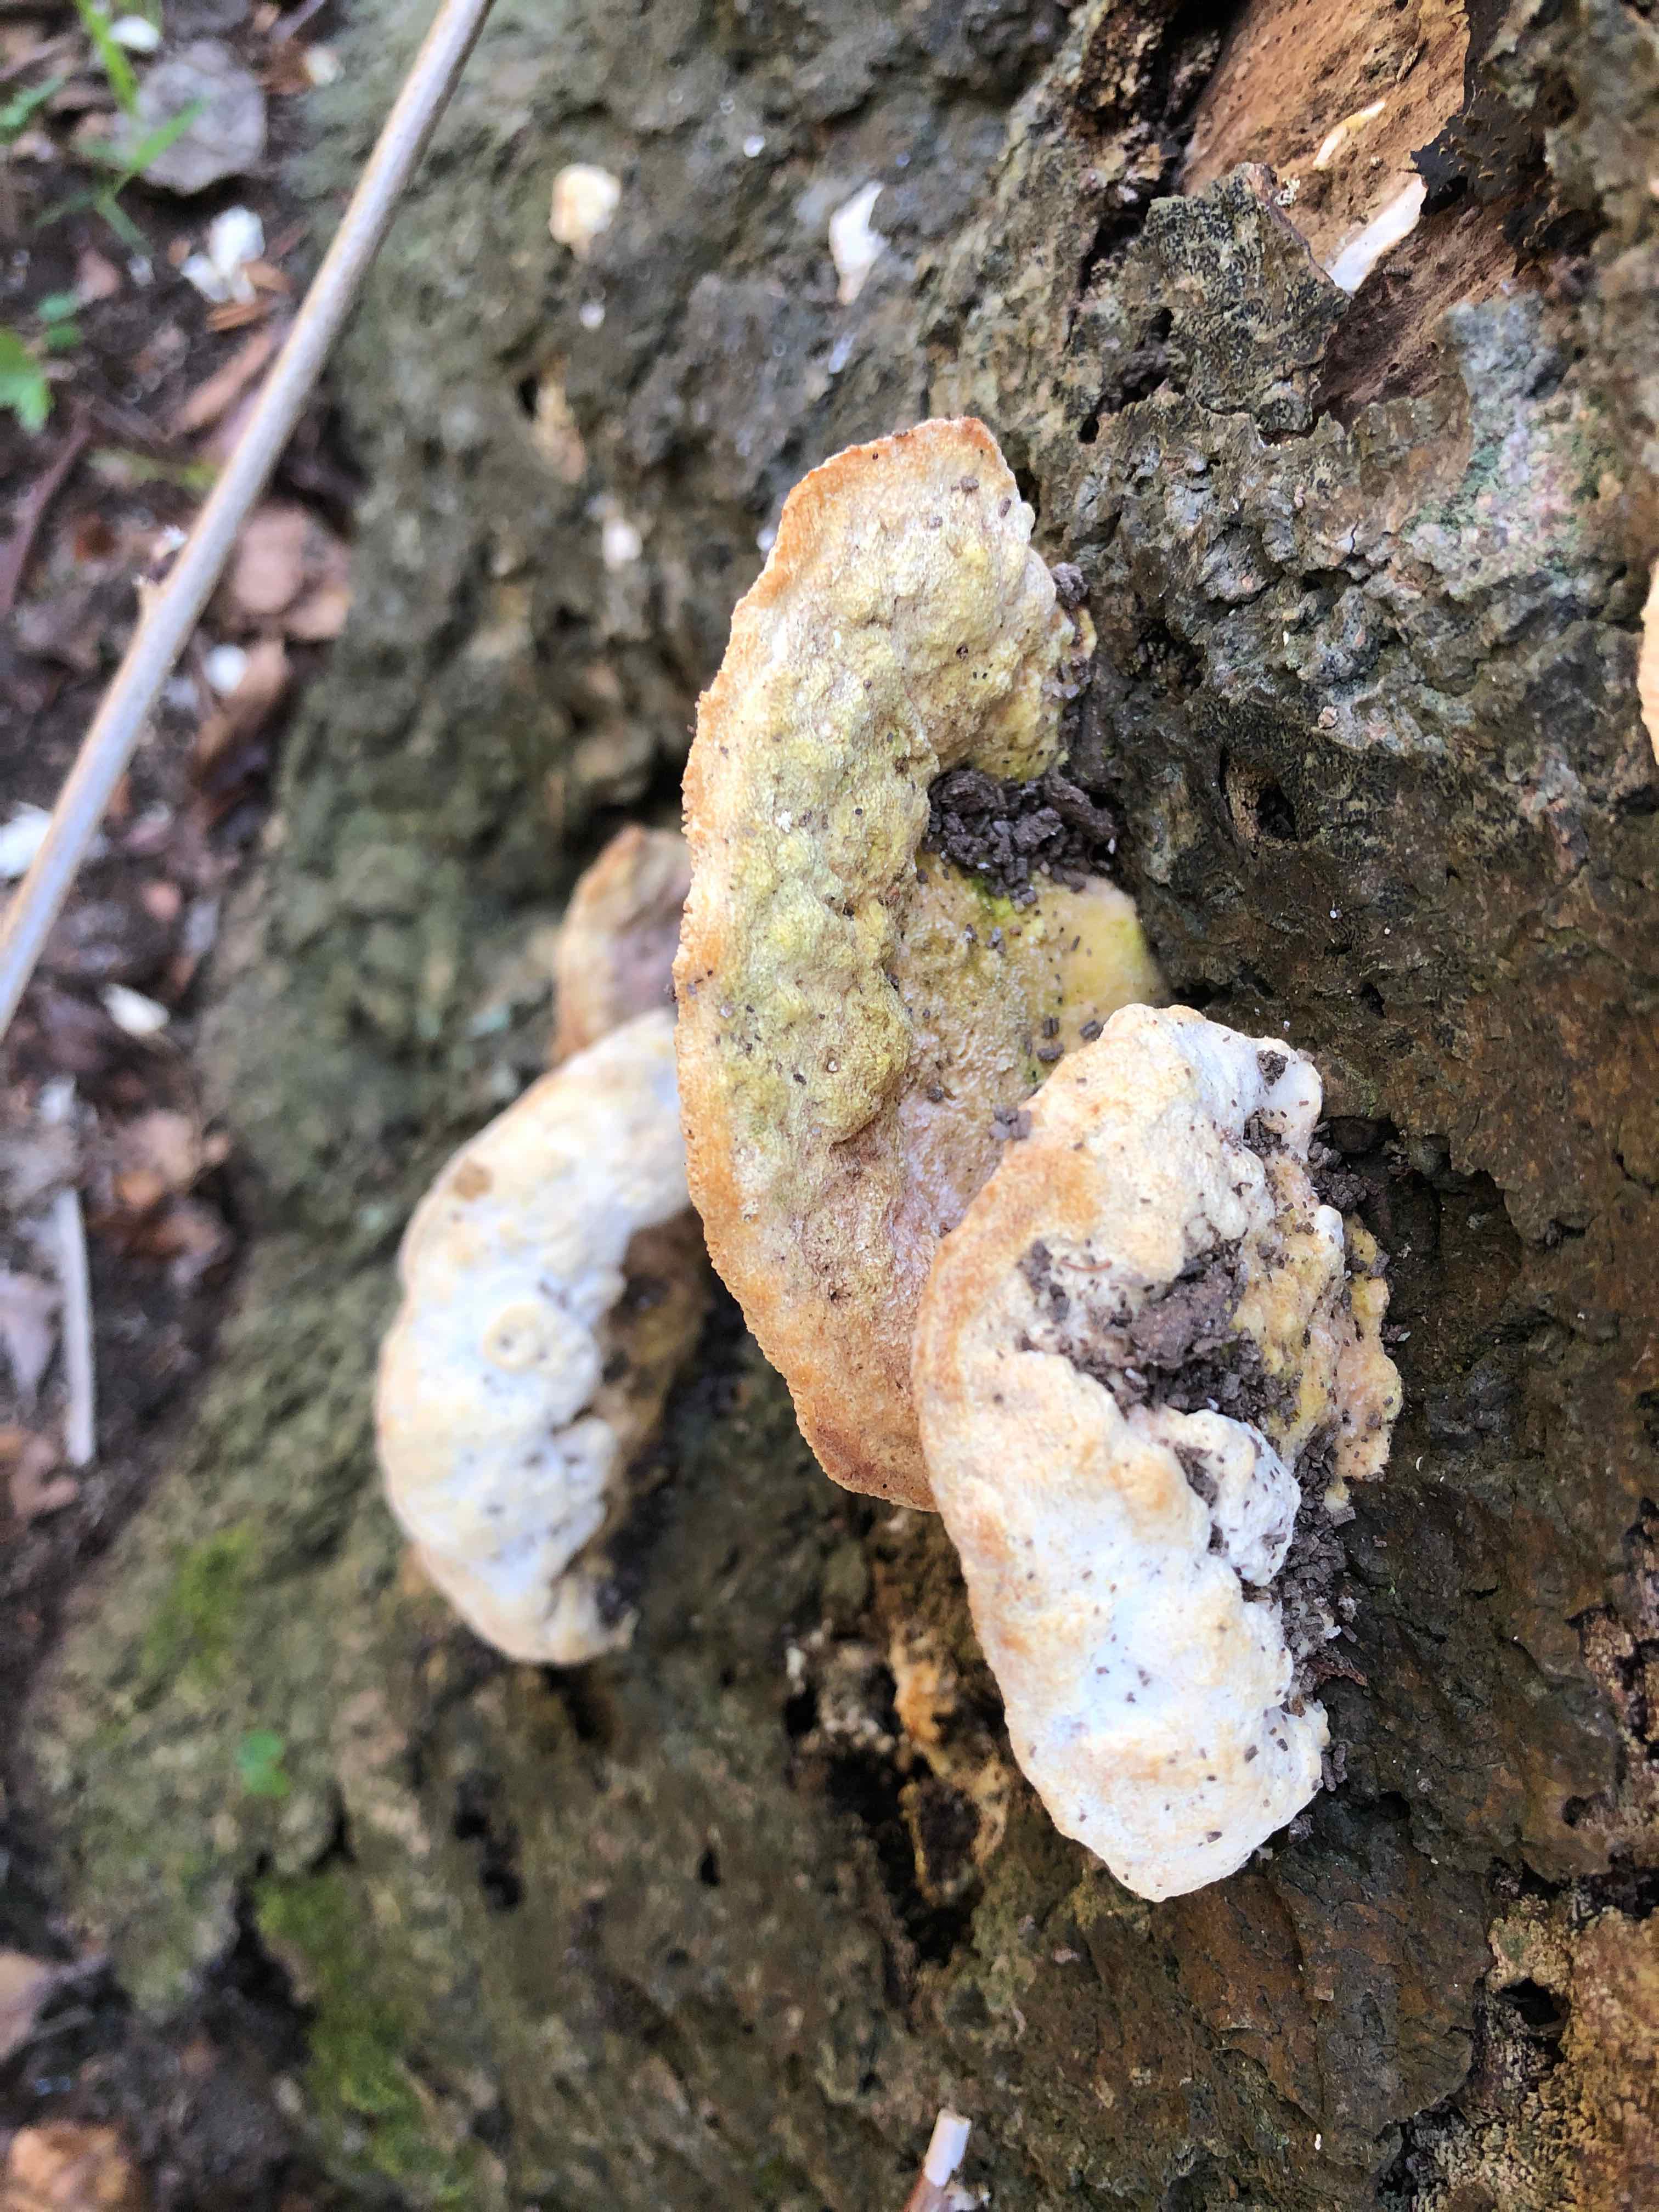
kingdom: Fungi
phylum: Basidiomycota
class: Agaricomycetes
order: Polyporales
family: Polyporaceae
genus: Trametes
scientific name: Trametes gibbosa
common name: puklet læderporesvamp
